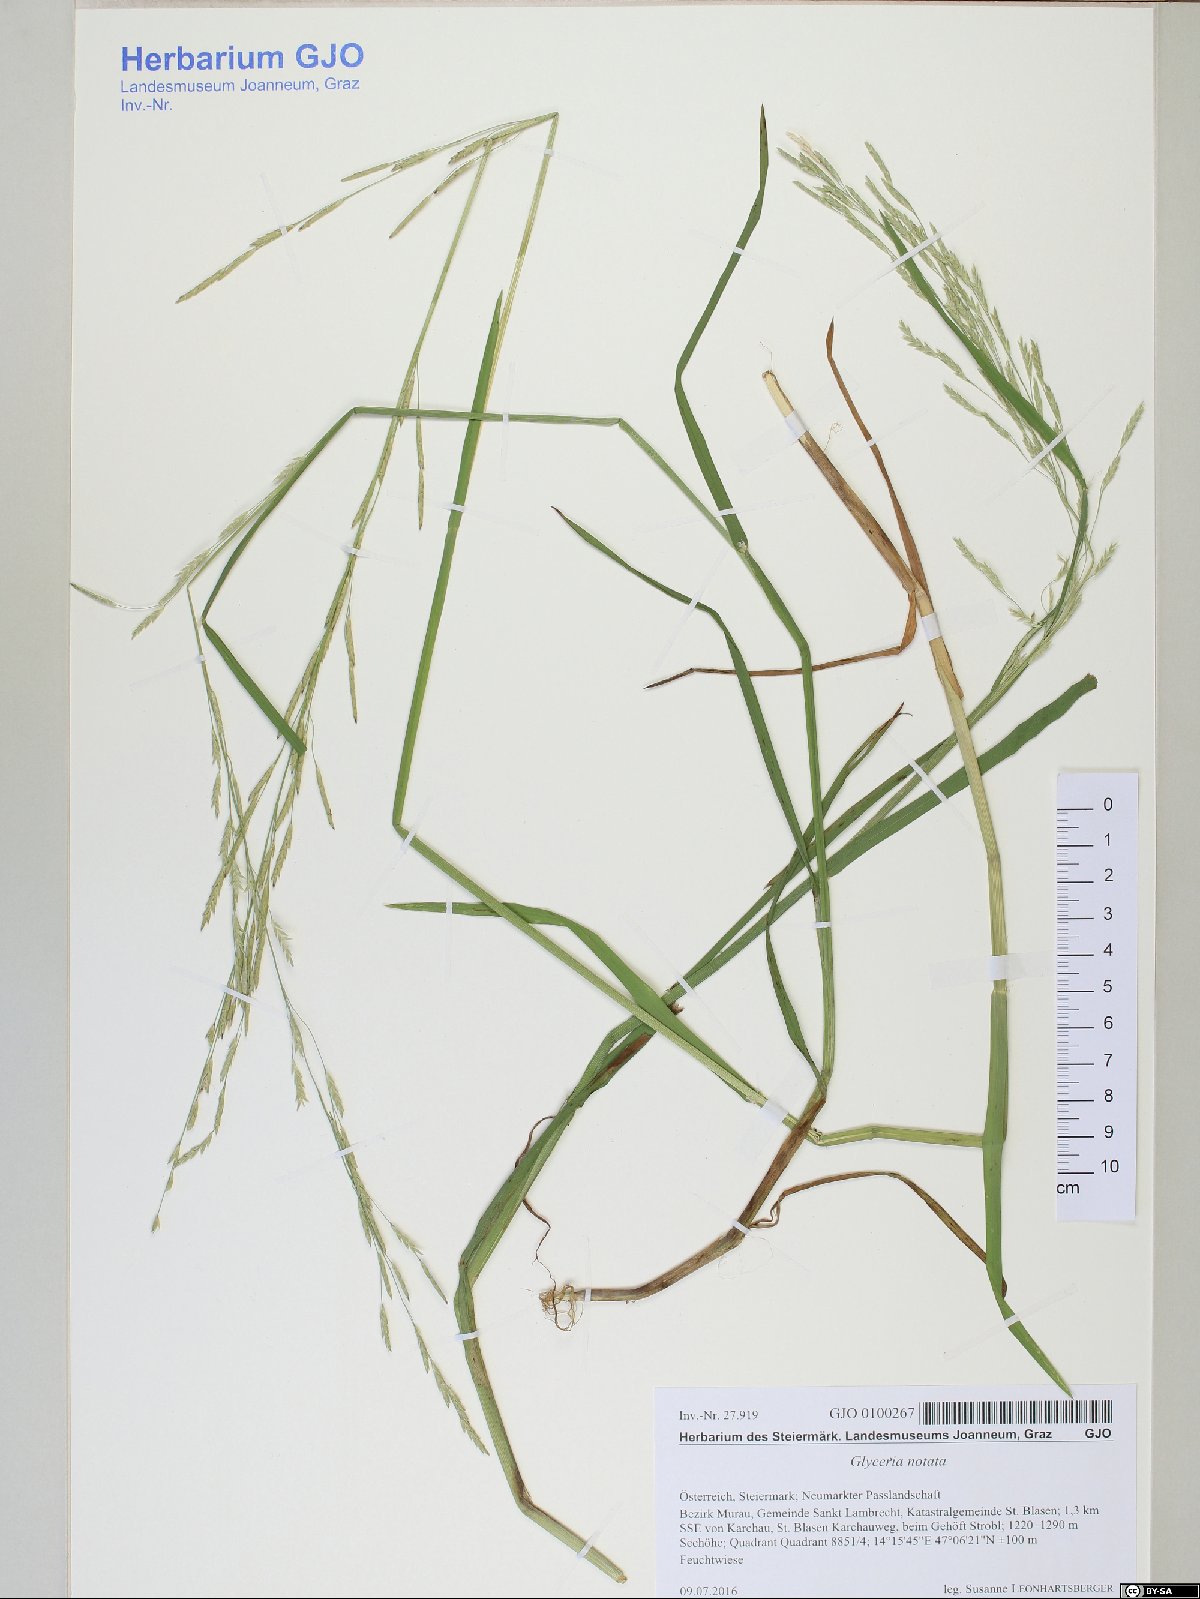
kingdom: Plantae
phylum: Tracheophyta
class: Liliopsida
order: Poales
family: Poaceae
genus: Glyceria
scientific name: Glyceria notata
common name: Plicate sweet-grass
